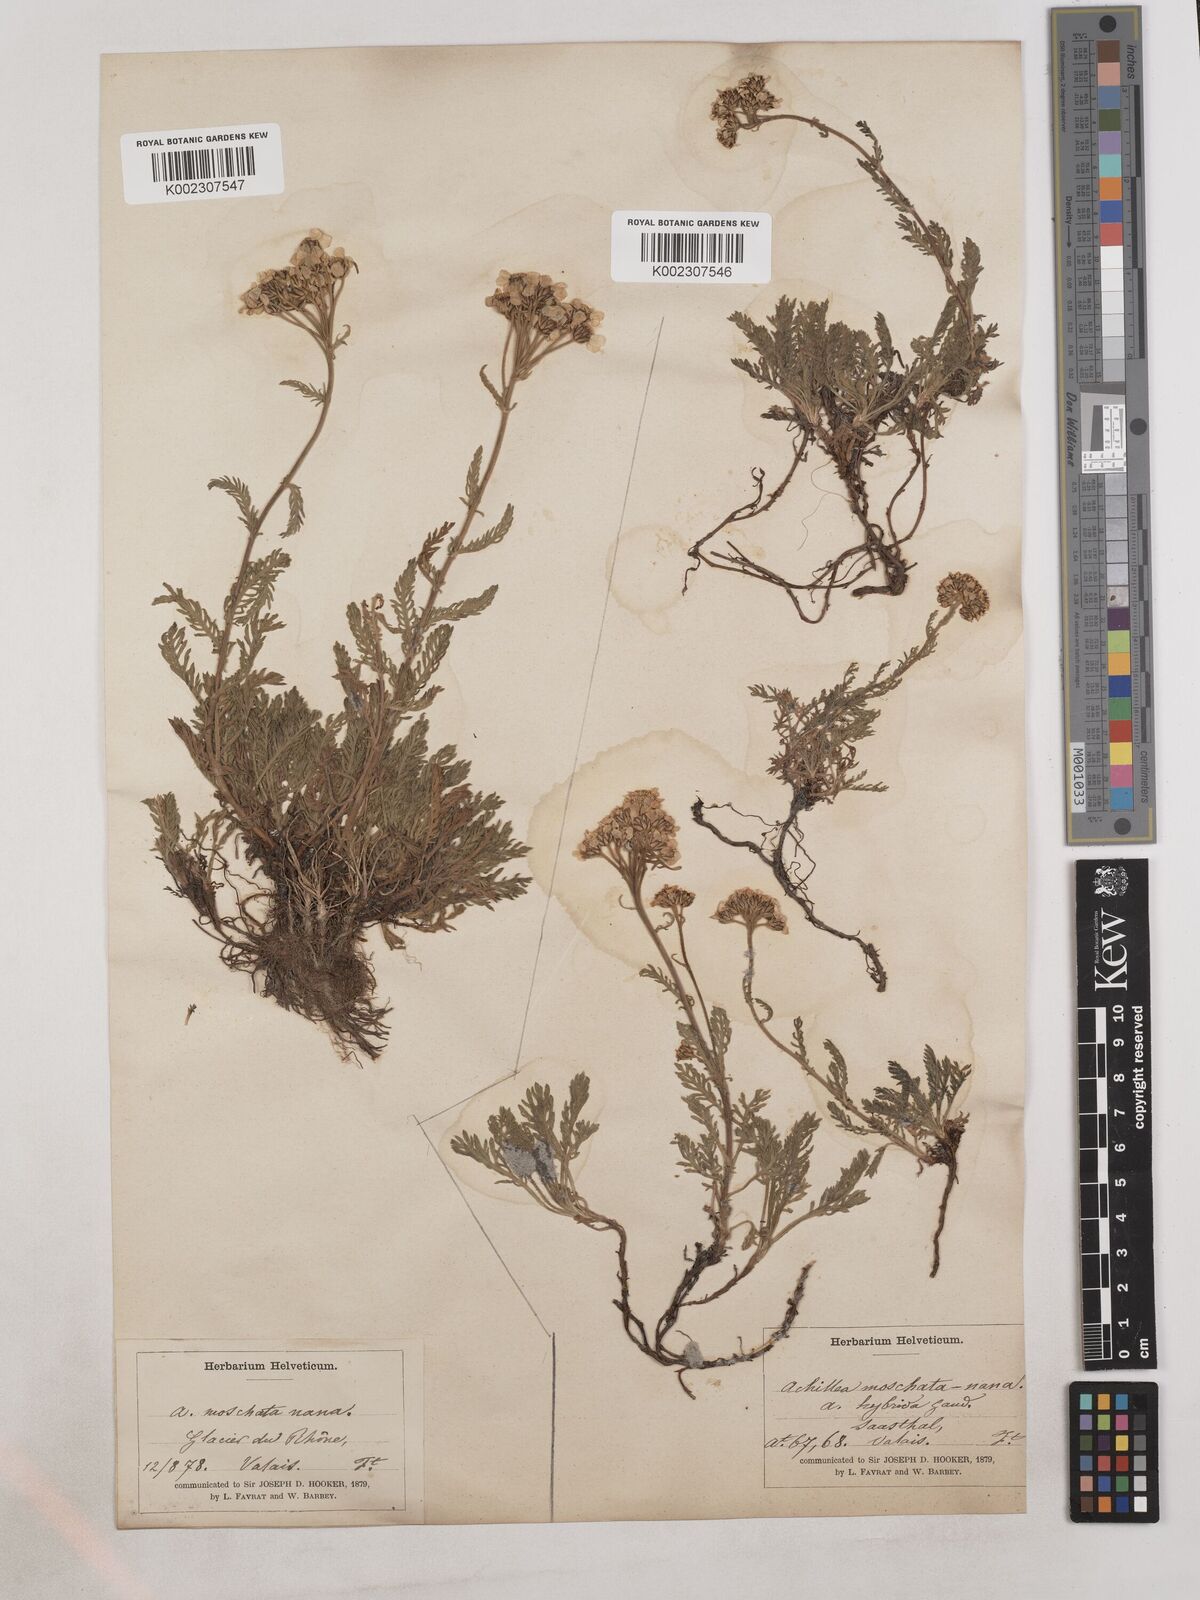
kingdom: Plantae
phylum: Tracheophyta
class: Magnoliopsida
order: Asterales
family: Asteraceae
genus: Achillea
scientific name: Achillea erba-rotta
